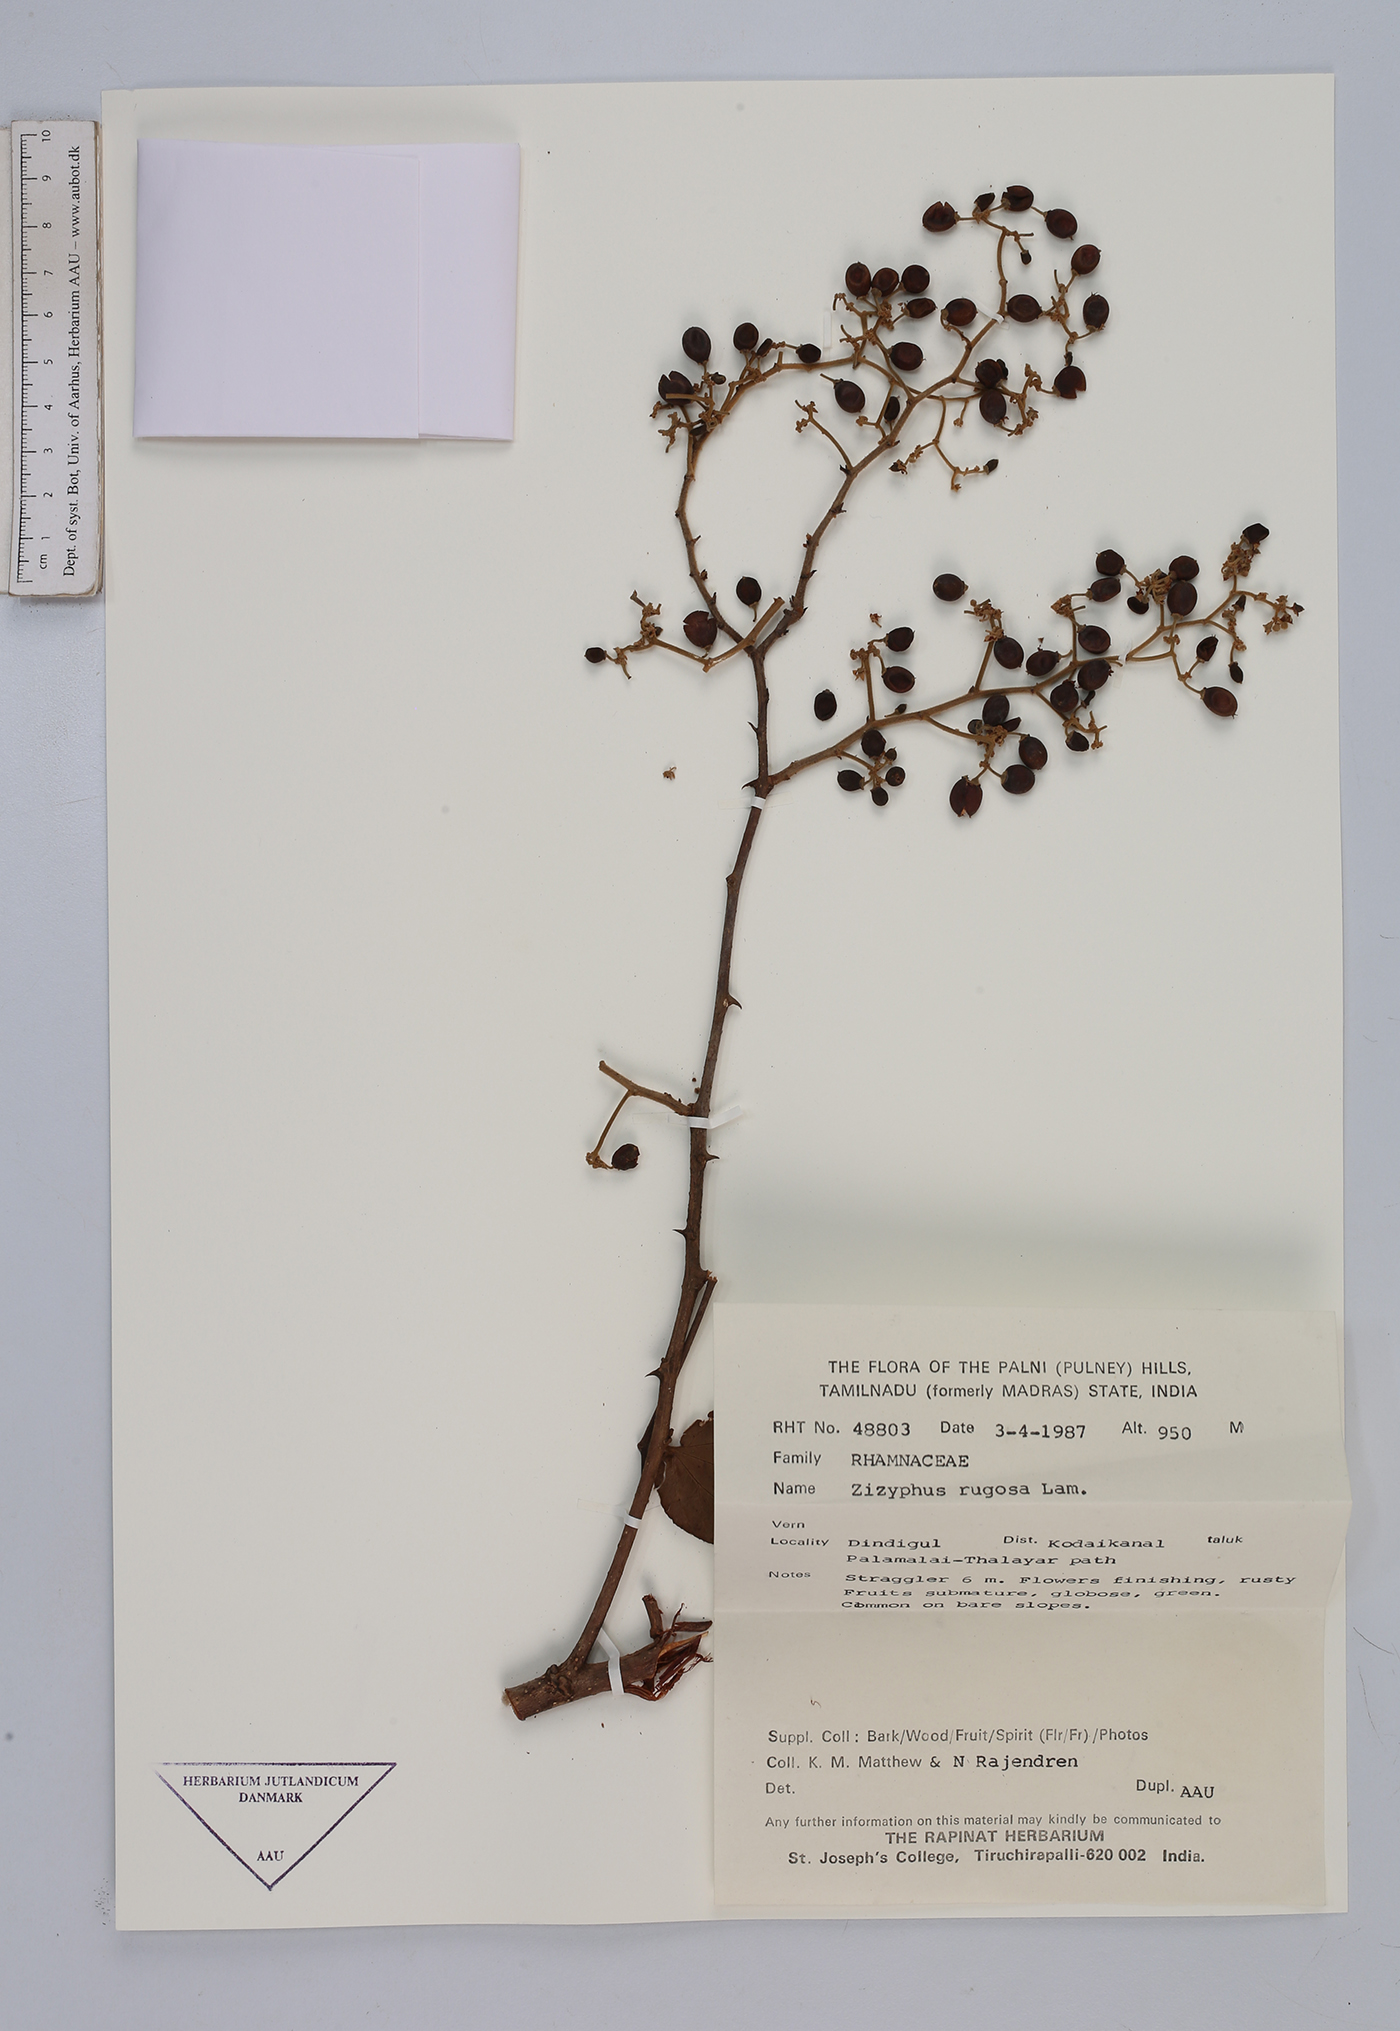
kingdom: Plantae
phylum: Tracheophyta
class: Magnoliopsida
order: Rosales
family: Rhamnaceae
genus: Ziziphus
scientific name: Ziziphus rugosa
